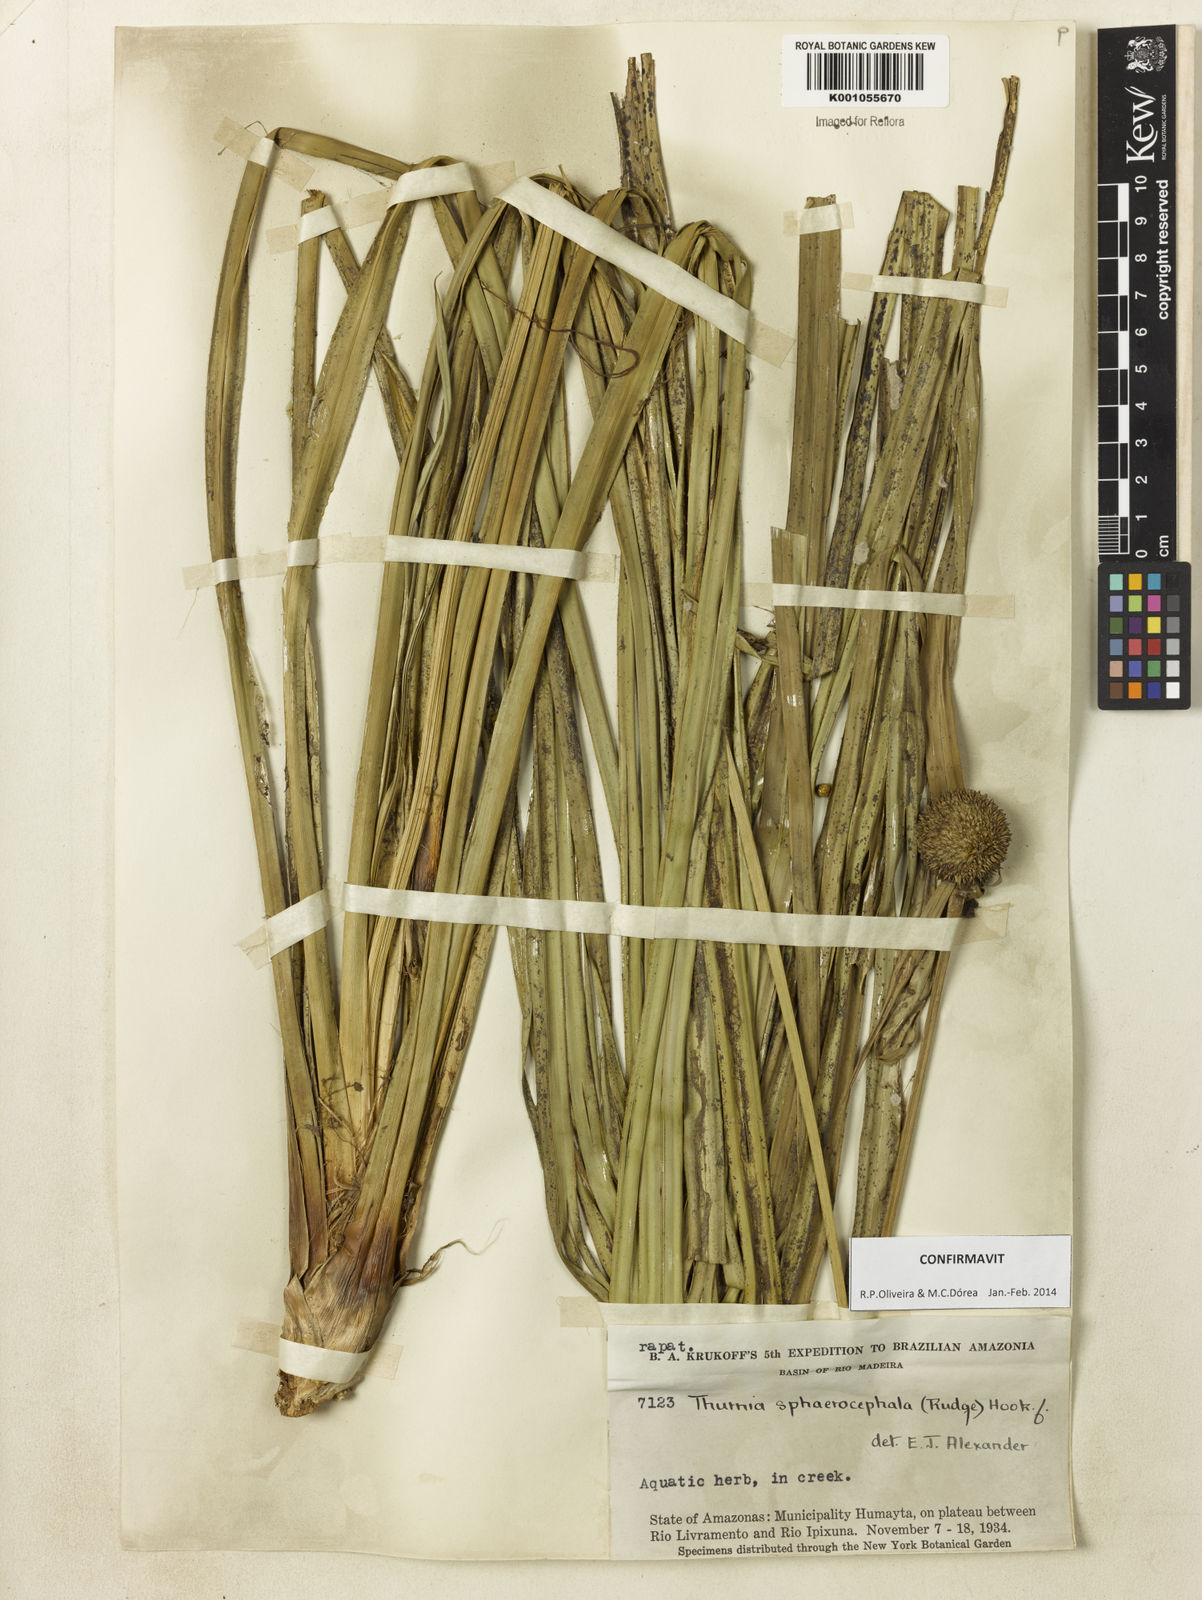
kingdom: Plantae
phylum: Tracheophyta
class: Liliopsida
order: Poales
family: Thurniaceae
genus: Thurnia
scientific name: Thurnia sphaerocephala
